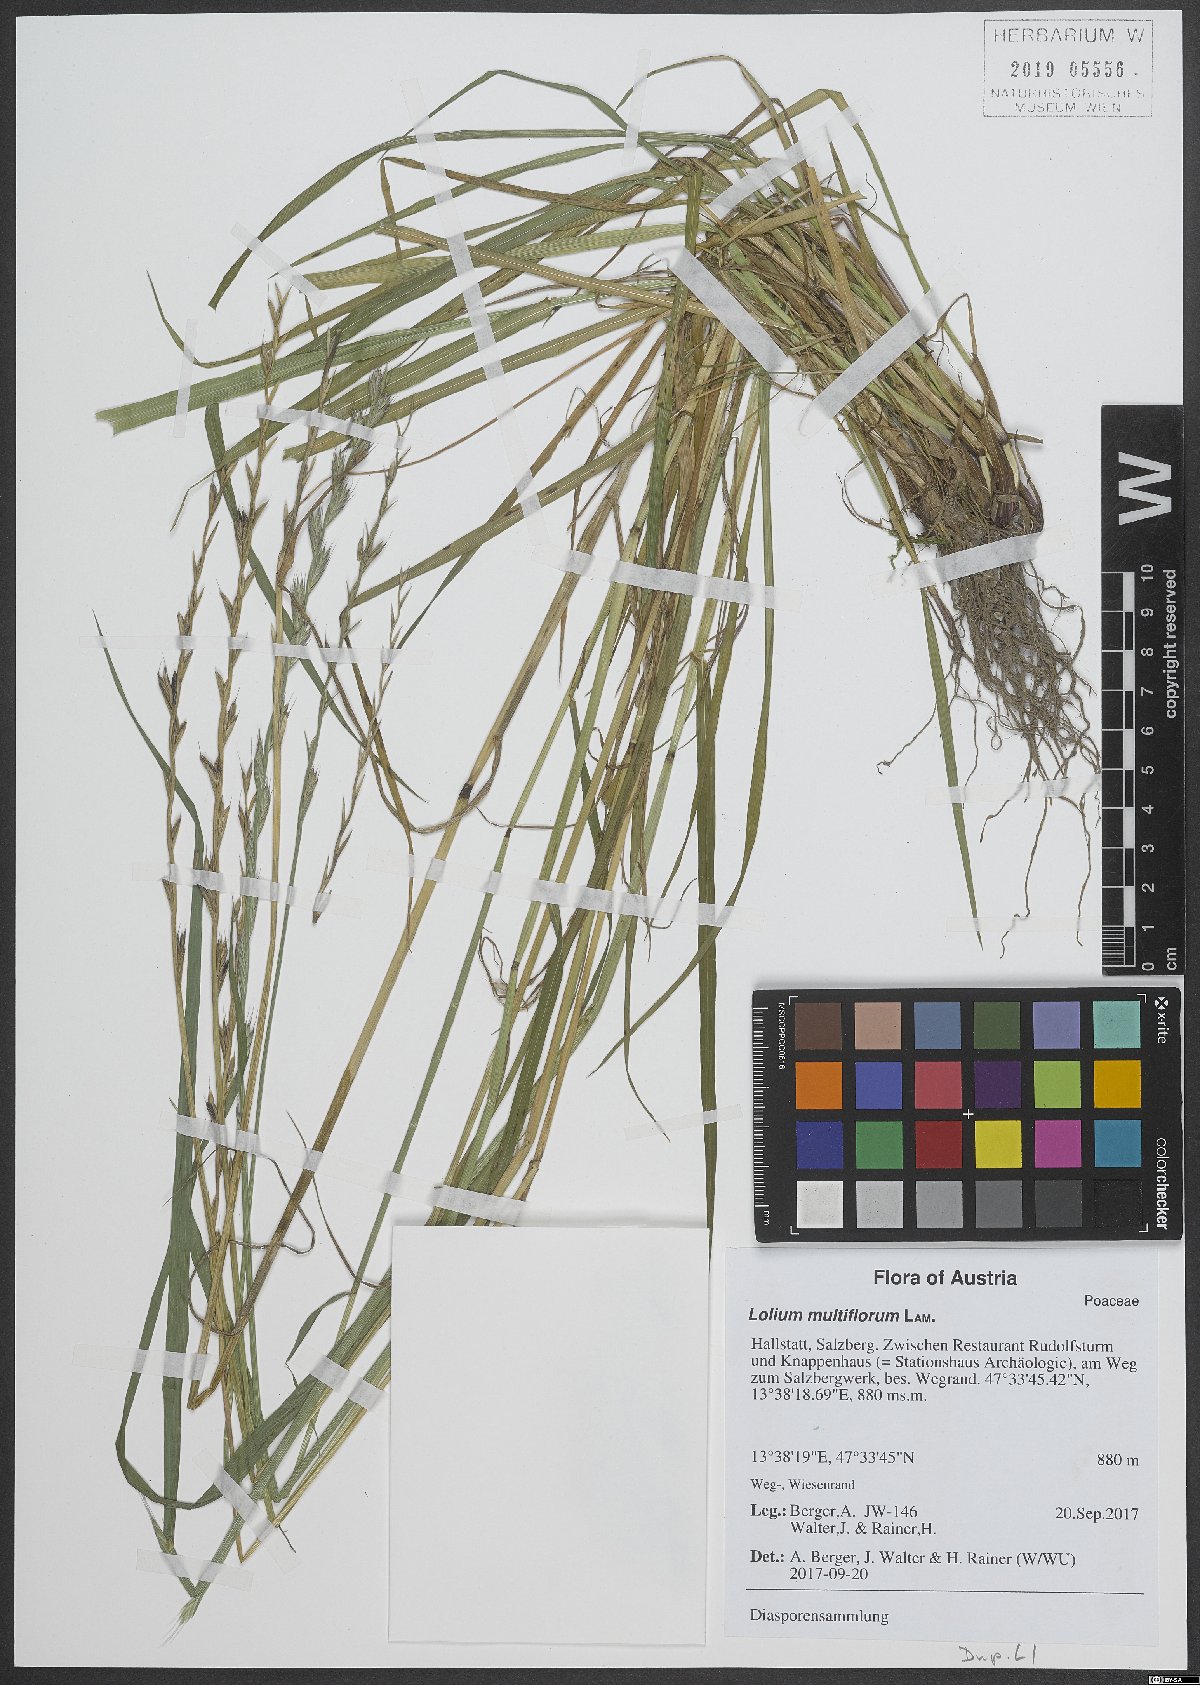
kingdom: Plantae
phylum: Tracheophyta
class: Liliopsida
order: Poales
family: Poaceae
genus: Lolium
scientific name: Lolium multiflorum
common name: Annual ryegrass
